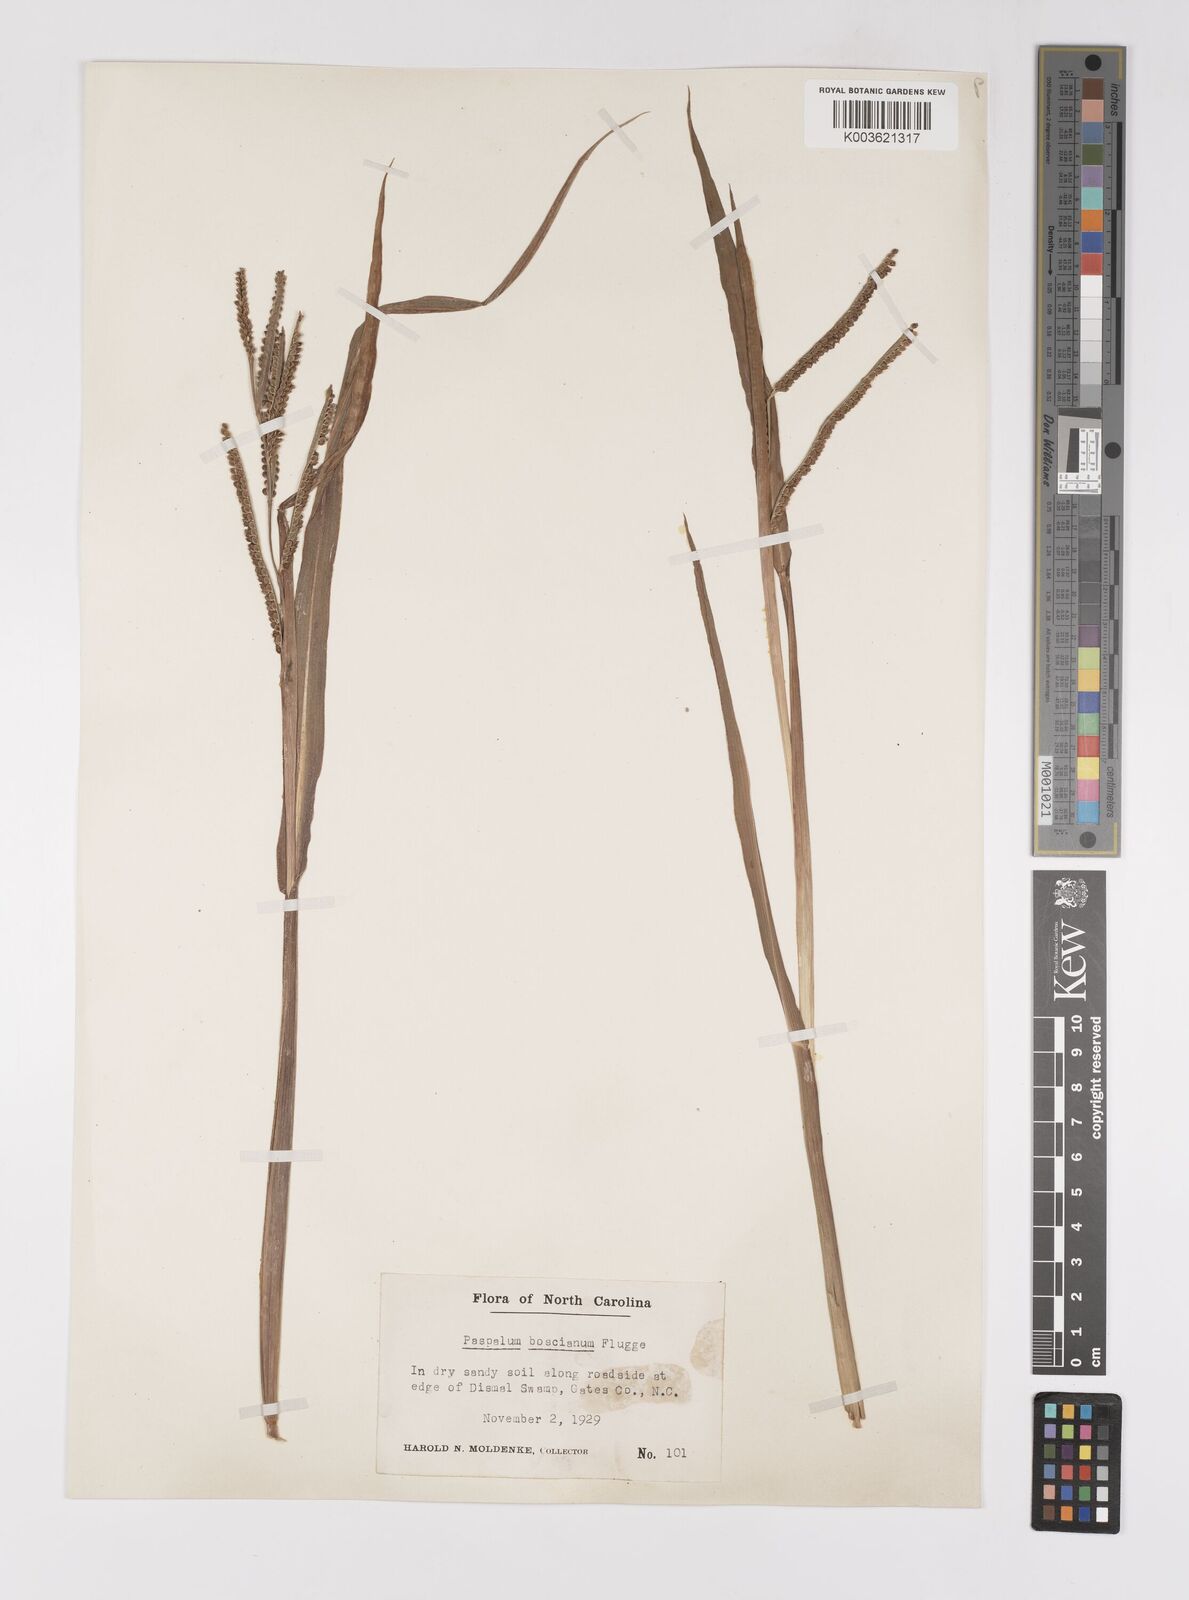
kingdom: Plantae
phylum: Tracheophyta
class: Liliopsida
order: Poales
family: Poaceae
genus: Paspalum
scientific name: Paspalum scrobiculatum
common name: Kodo millet
